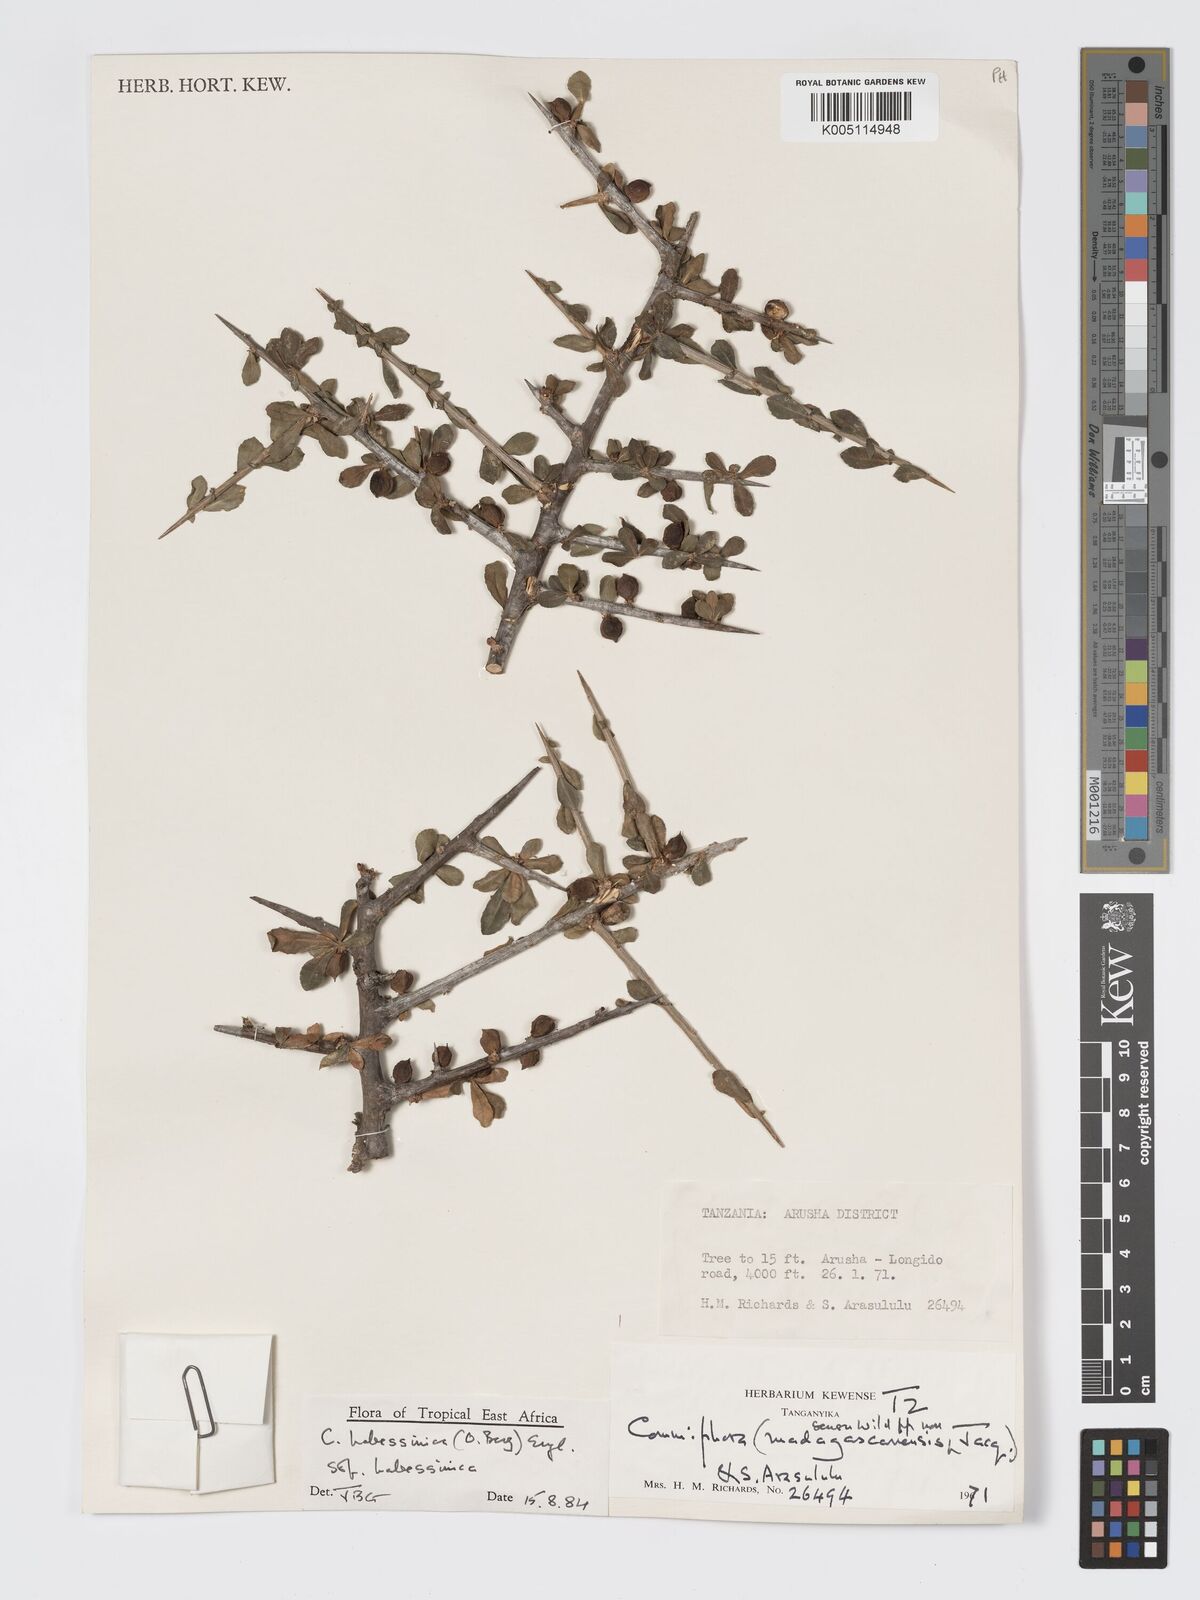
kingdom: Plantae
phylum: Tracheophyta
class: Magnoliopsida
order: Sapindales
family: Burseraceae
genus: Commiphora
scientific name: Commiphora kua
